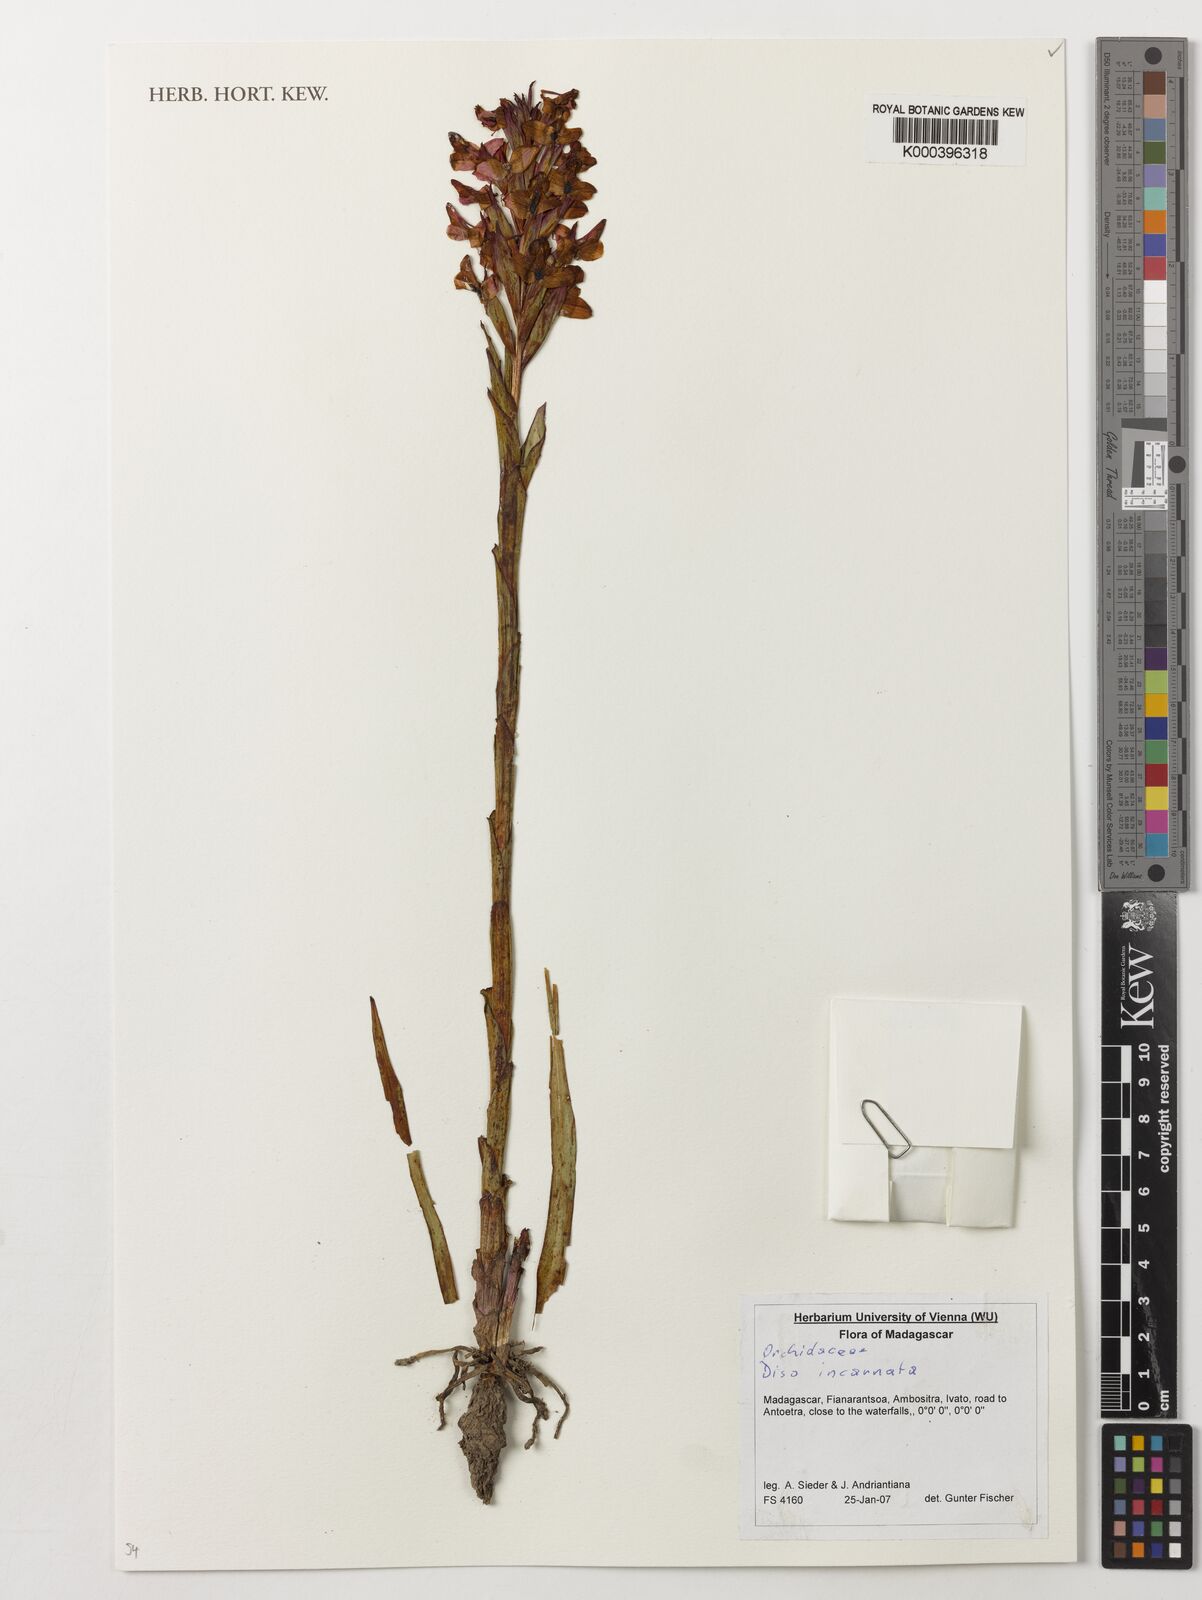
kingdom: Plantae
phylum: Tracheophyta
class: Liliopsida
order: Asparagales
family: Orchidaceae
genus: Disa
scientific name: Disa incarnata
